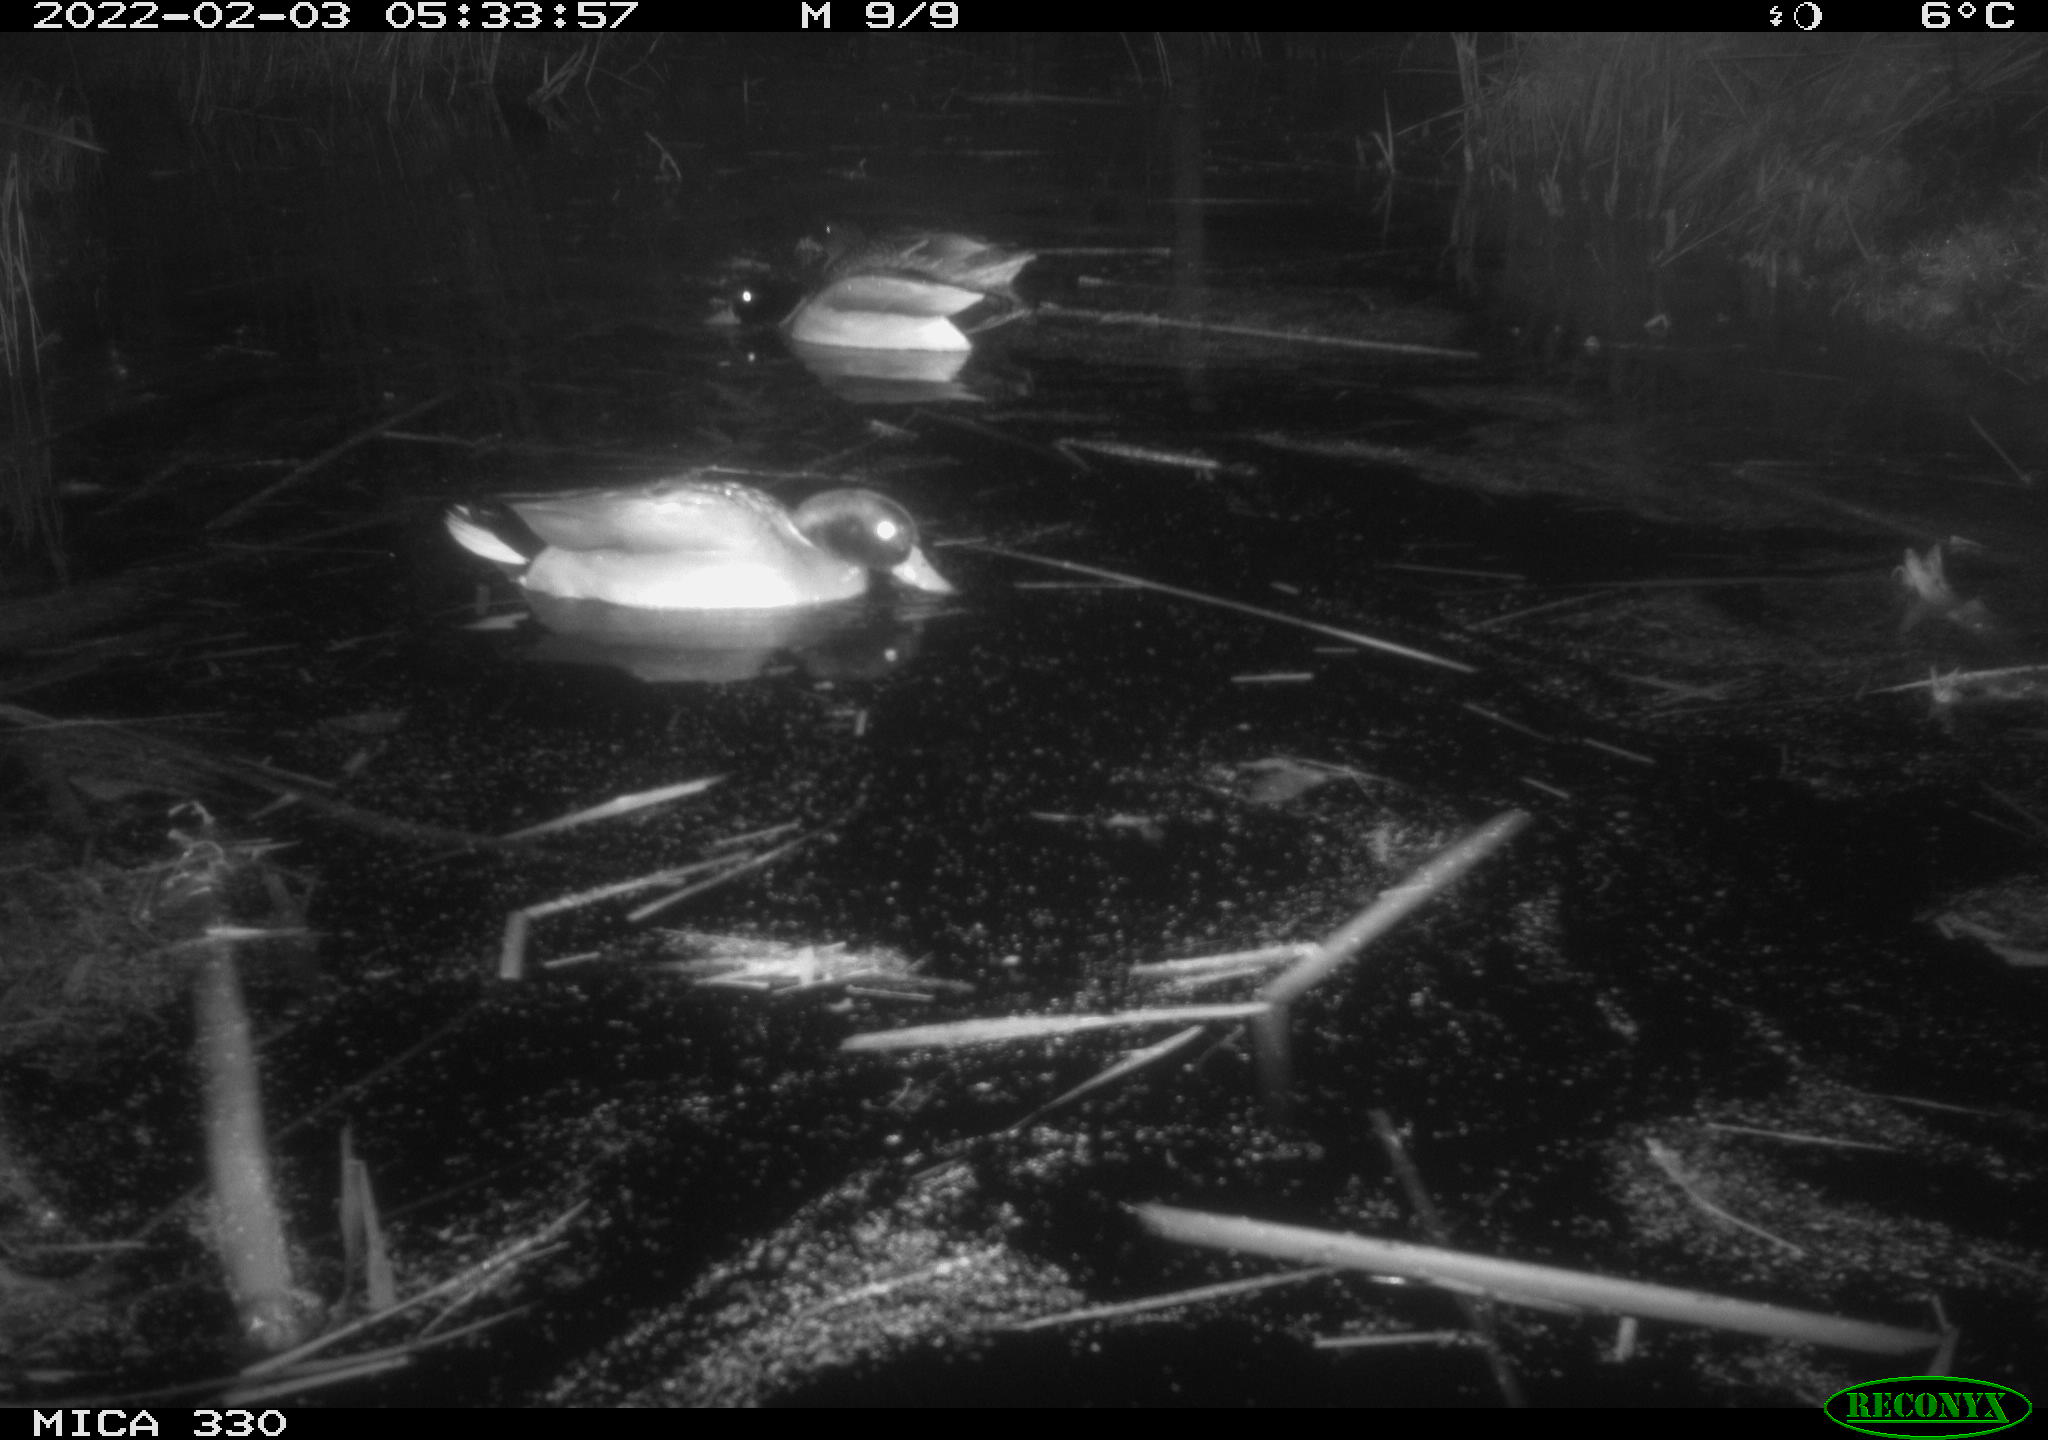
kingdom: Animalia
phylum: Chordata
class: Aves
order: Anseriformes
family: Anatidae
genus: Anas
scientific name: Anas platyrhynchos
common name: Mallard
